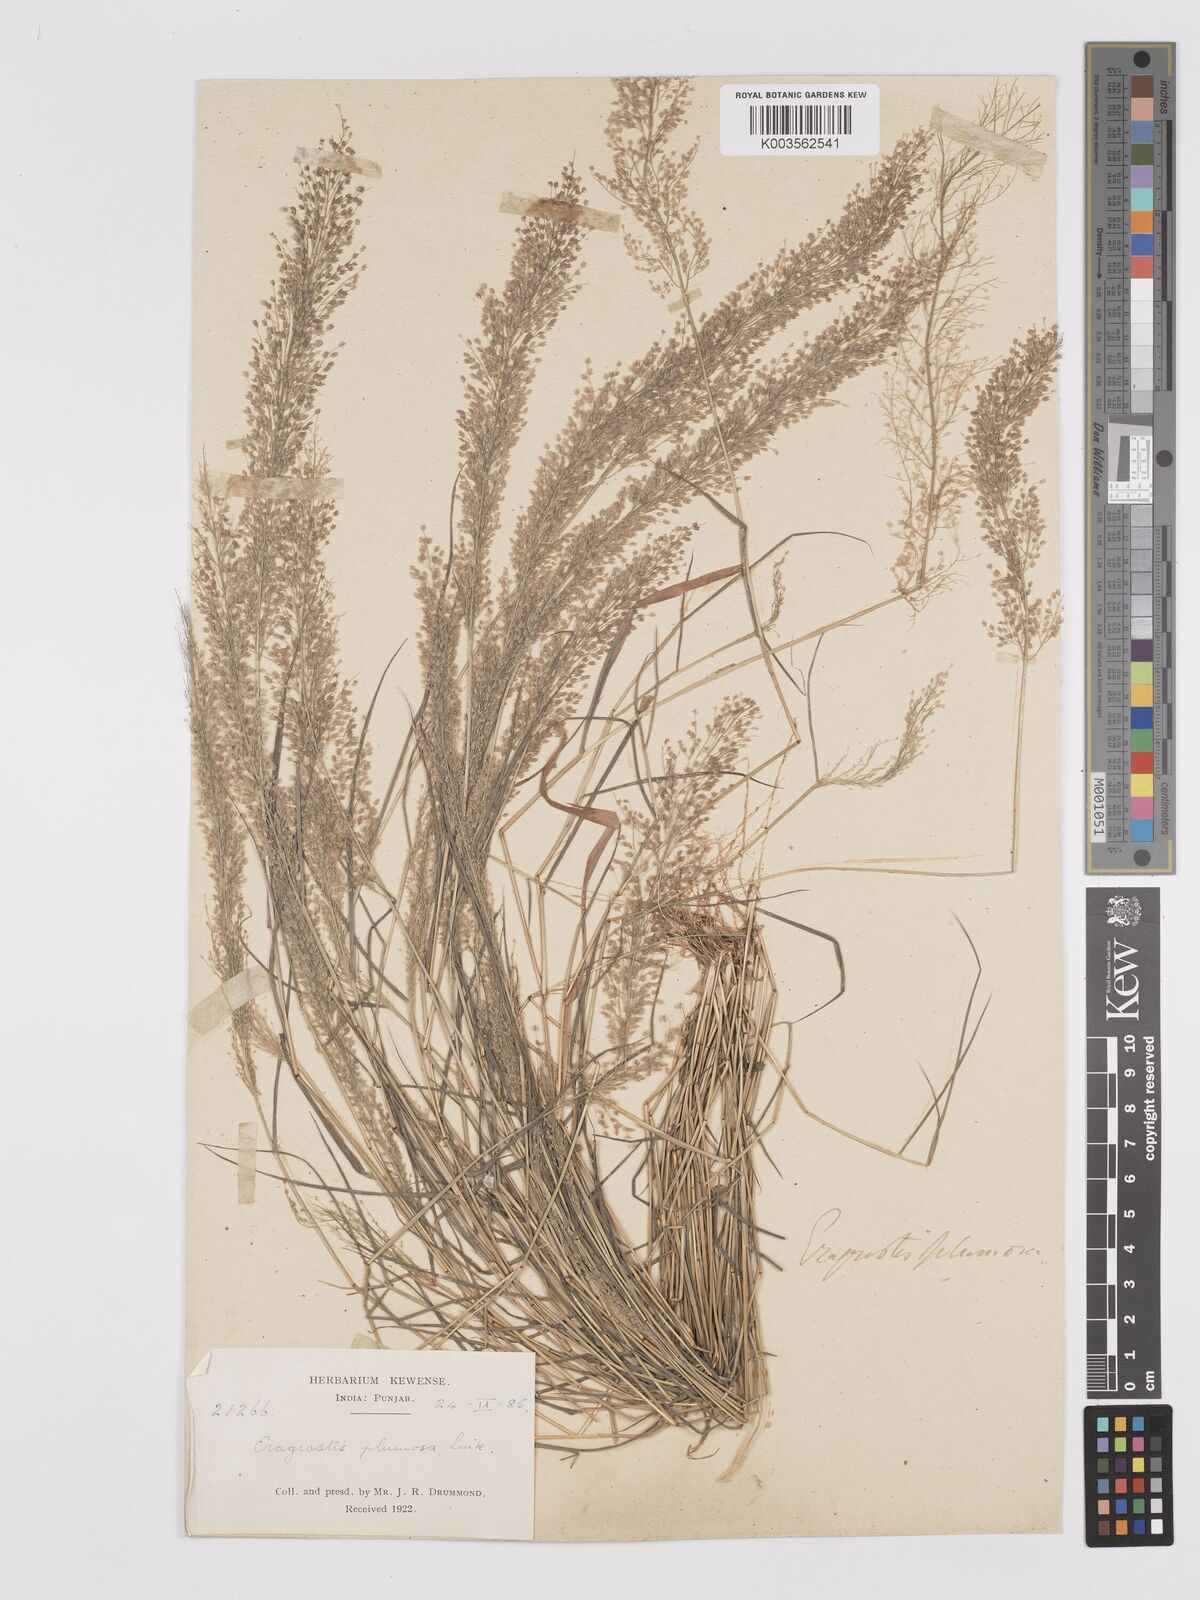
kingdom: Plantae
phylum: Tracheophyta
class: Liliopsida
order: Poales
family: Poaceae
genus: Eragrostis
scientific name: Eragrostis tenella
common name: Japanese lovegrass
